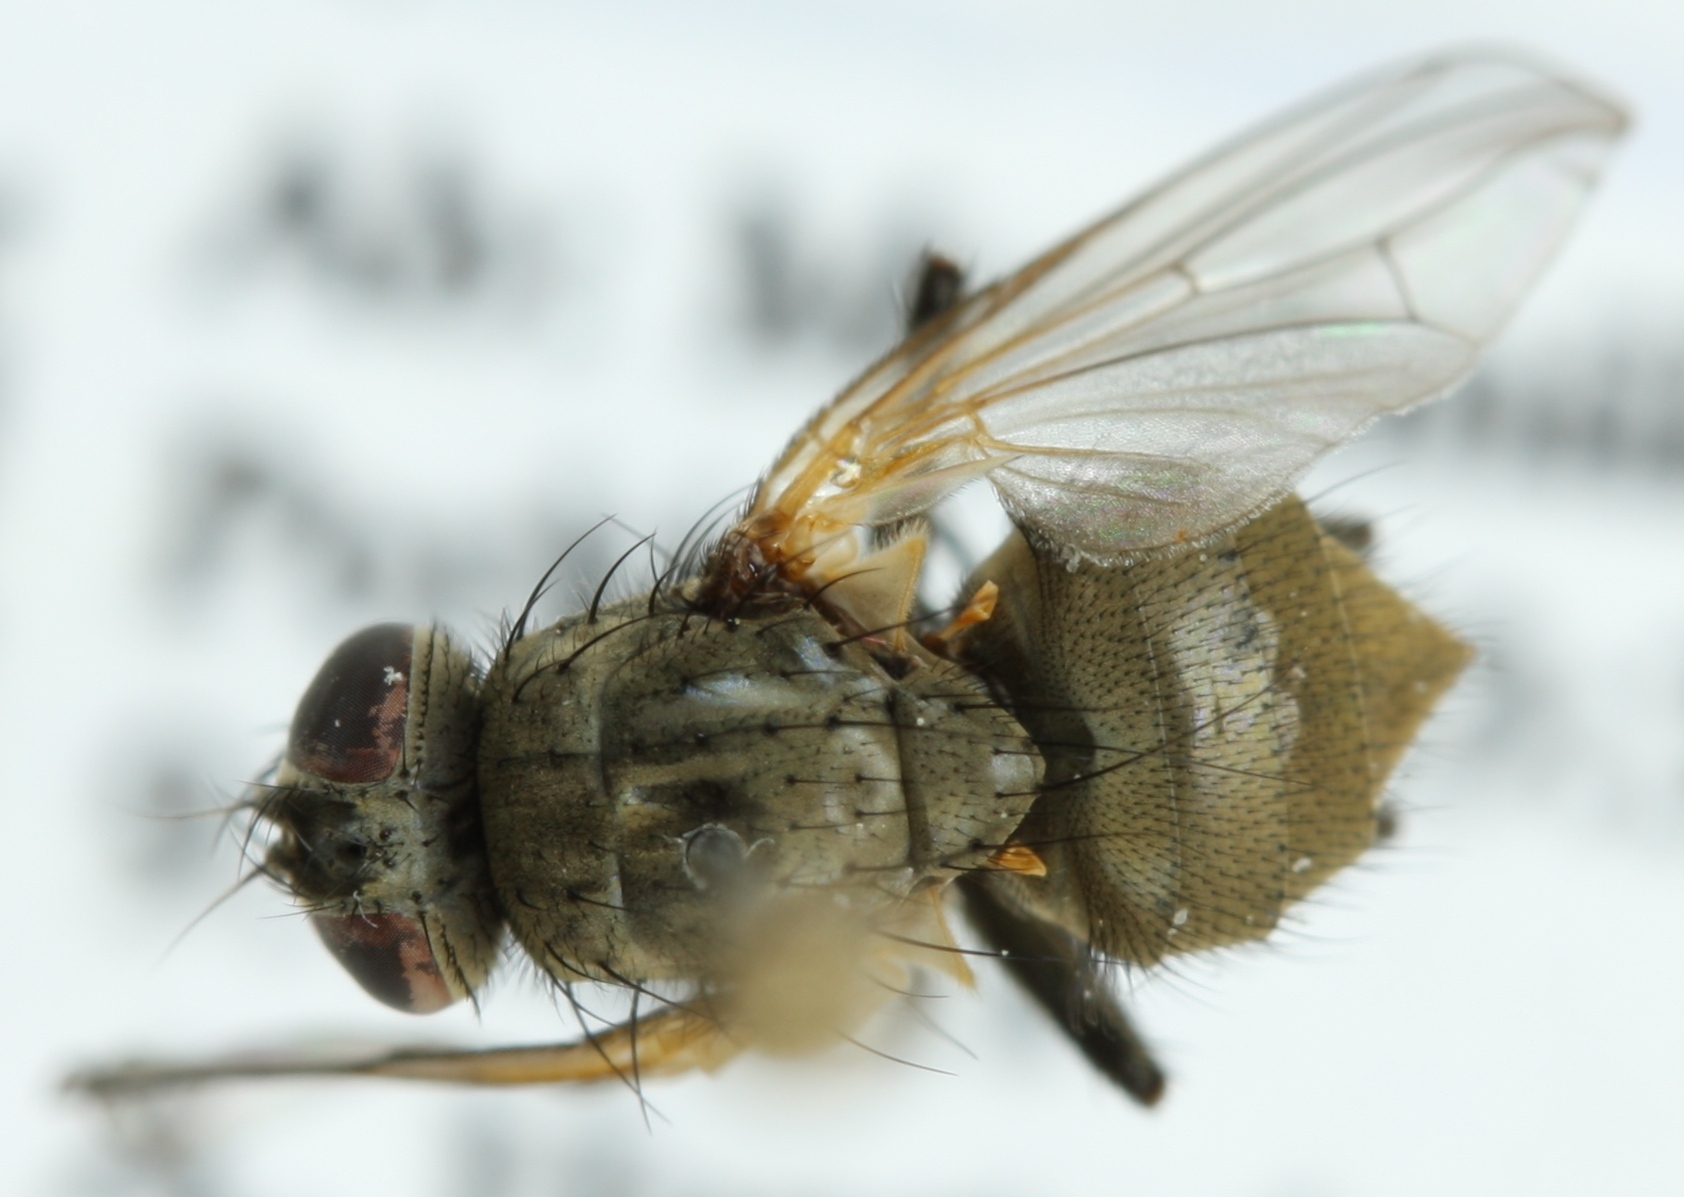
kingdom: Animalia
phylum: Arthropoda
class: Insecta
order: Diptera
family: Muscidae
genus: Hydrotaea
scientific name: Hydrotaea irritans
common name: Headfly
